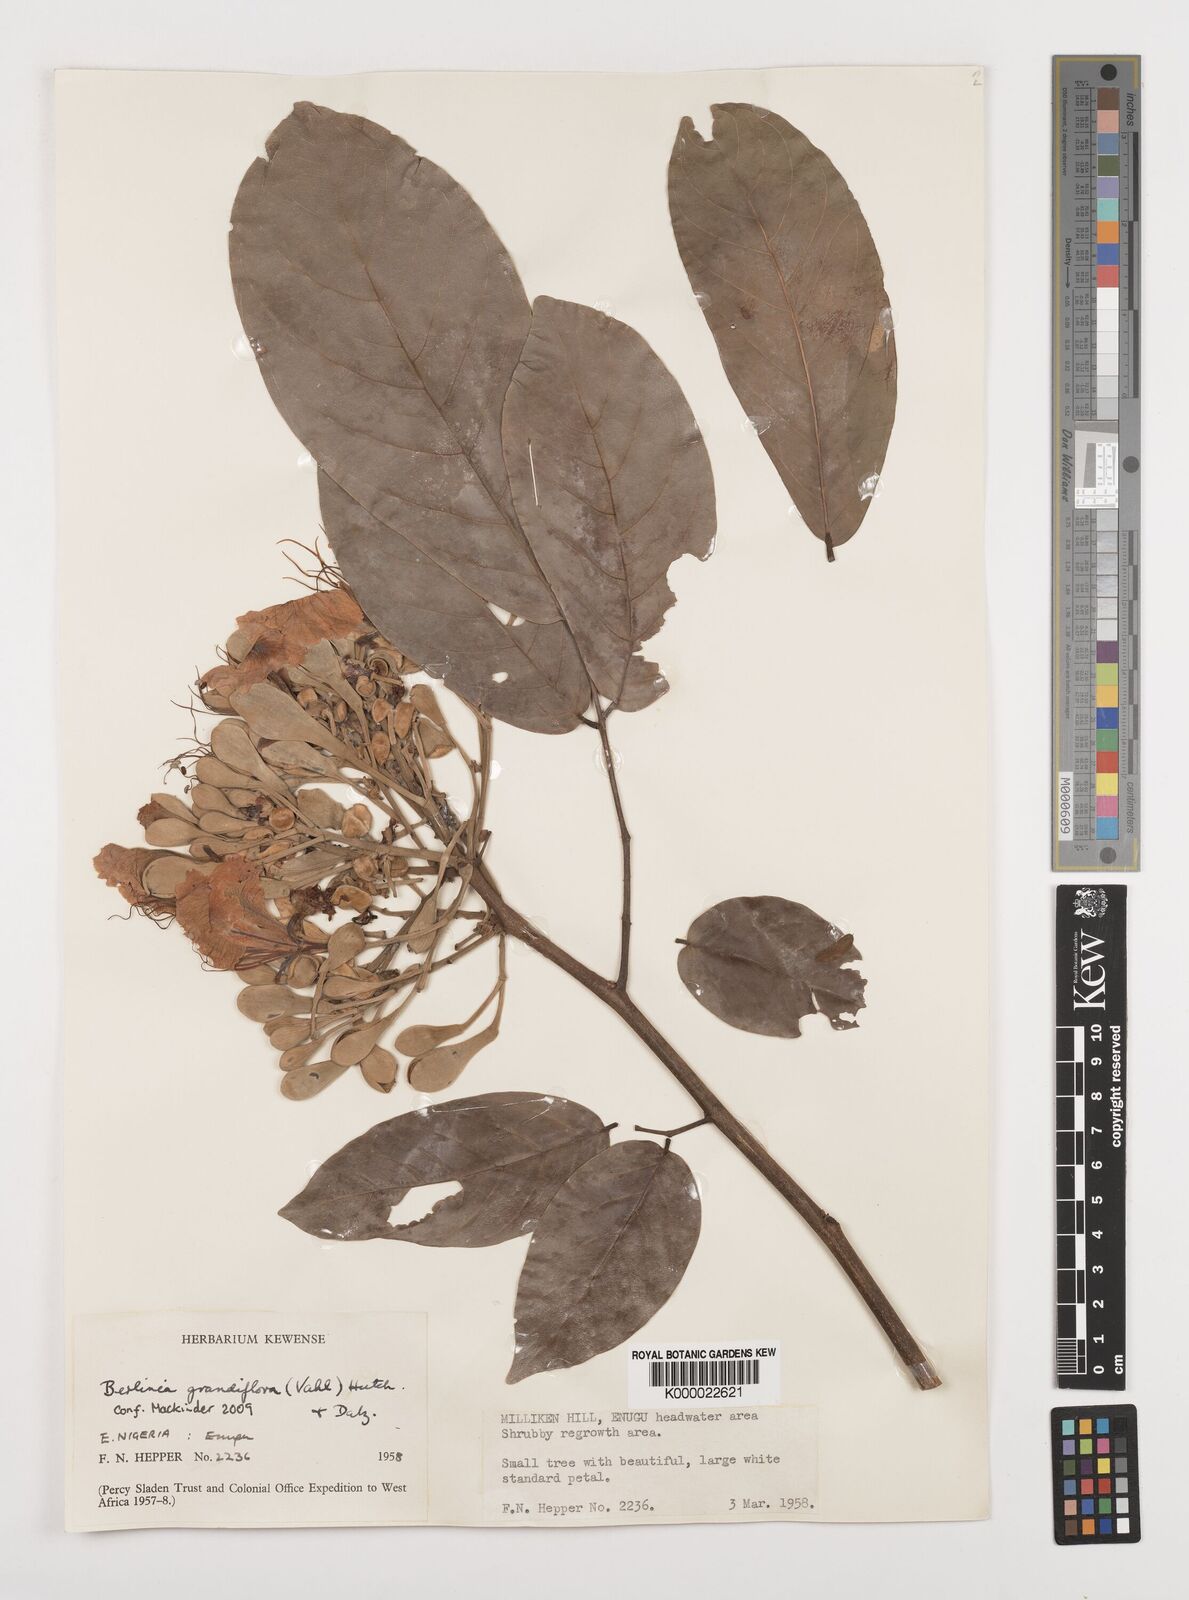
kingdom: Plantae
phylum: Tracheophyta
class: Magnoliopsida
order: Fabales
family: Fabaceae
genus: Berlinia
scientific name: Berlinia grandiflora
